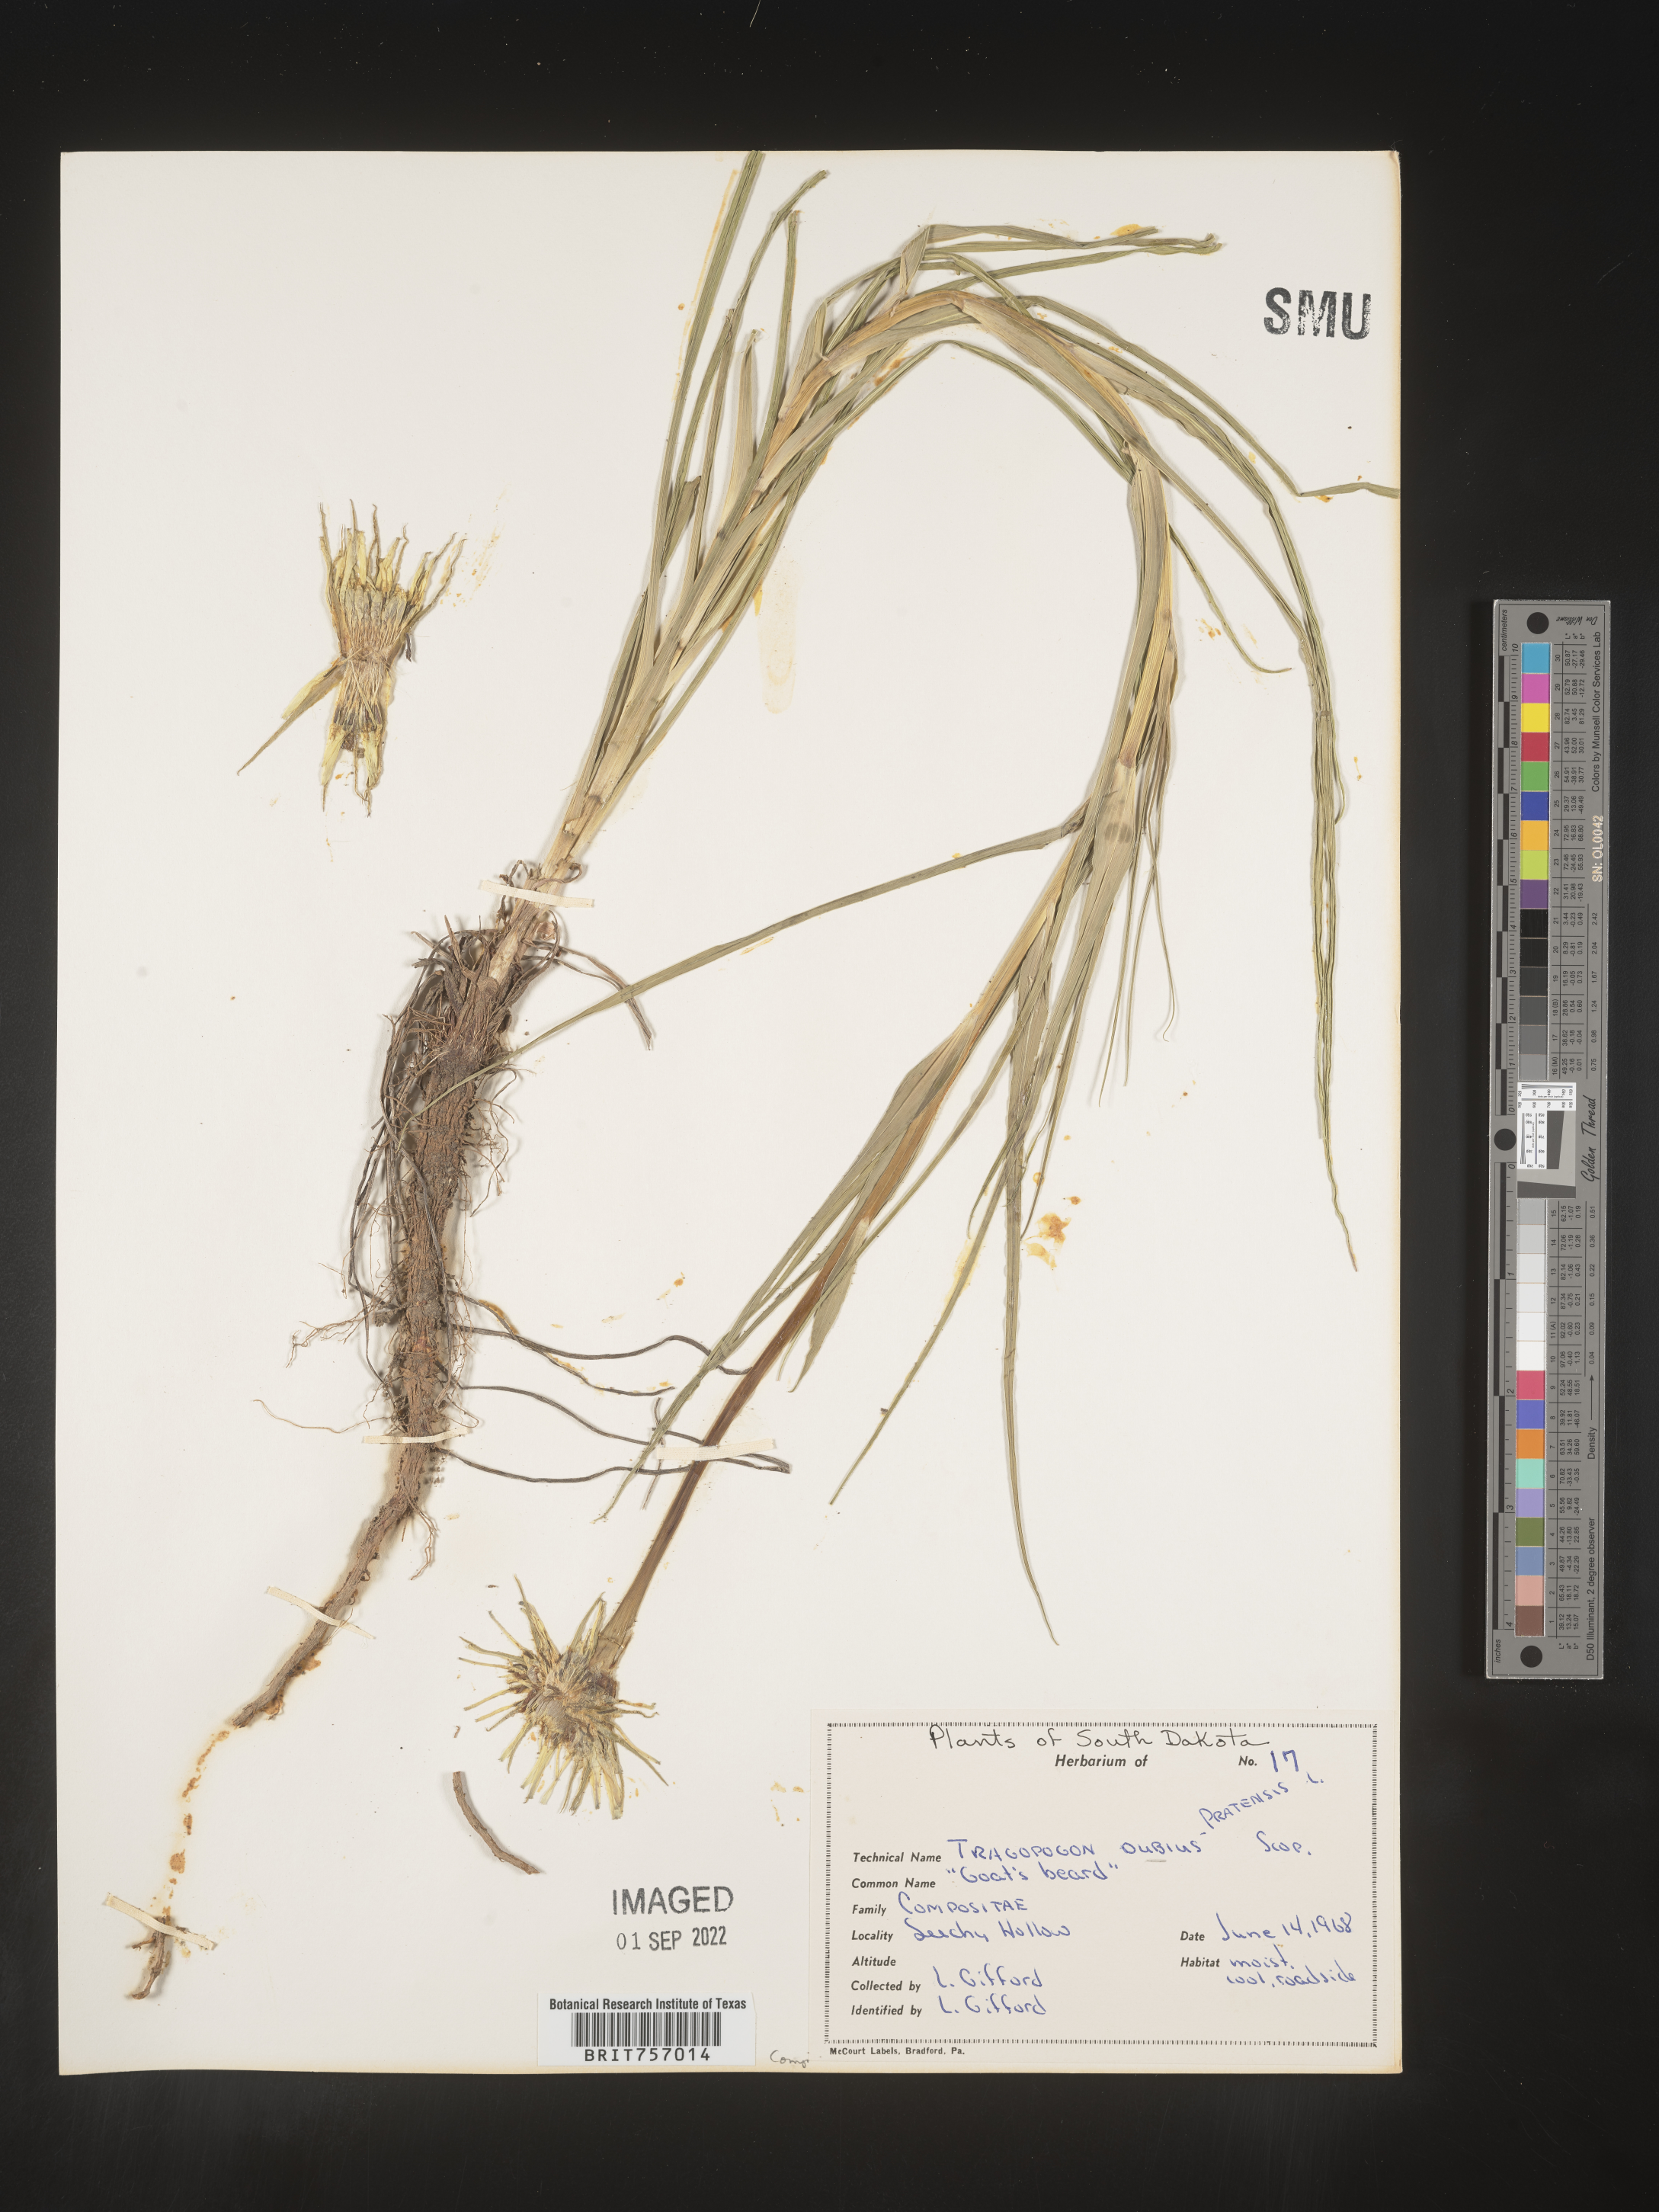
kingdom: Plantae
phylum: Tracheophyta
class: Magnoliopsida
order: Asterales
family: Asteraceae
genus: Tragopogon
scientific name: Tragopogon dubius
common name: Yellow salsify
